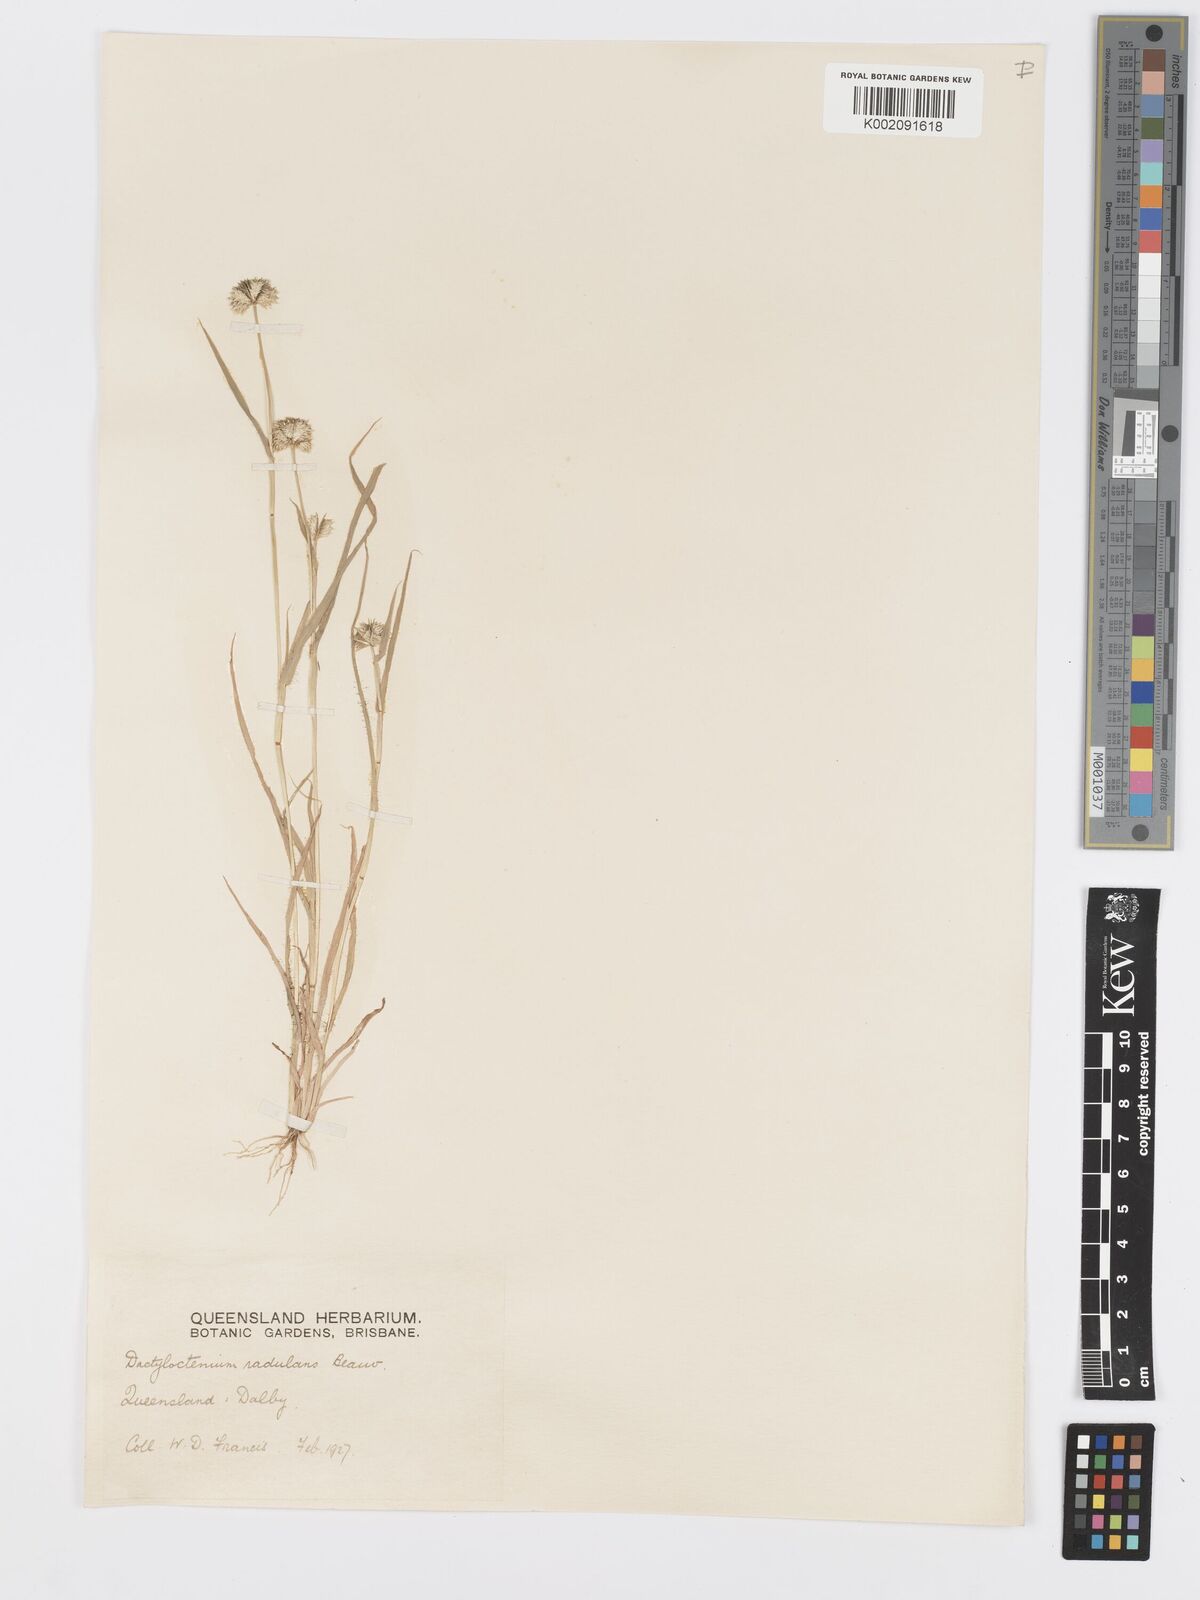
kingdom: Plantae
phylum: Tracheophyta
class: Liliopsida
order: Poales
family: Poaceae
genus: Dactyloctenium
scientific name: Dactyloctenium radulans
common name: Button-grass
